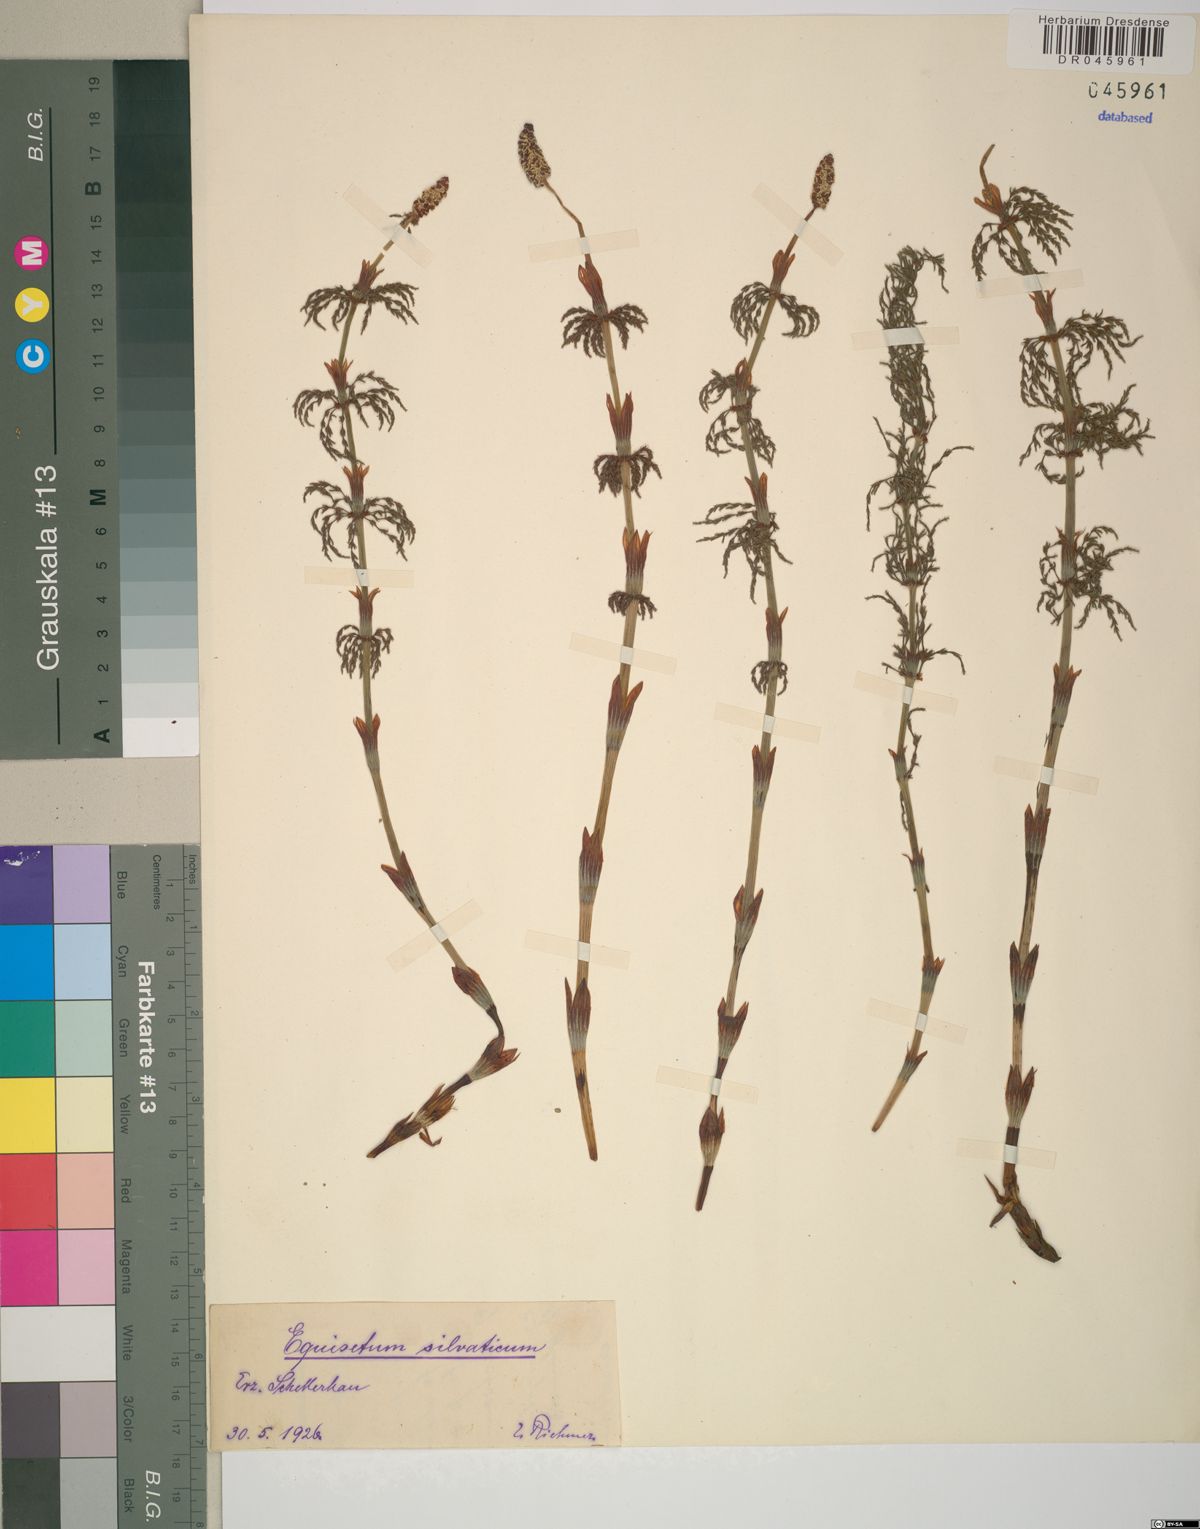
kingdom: Plantae
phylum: Tracheophyta
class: Polypodiopsida
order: Equisetales
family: Equisetaceae
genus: Equisetum
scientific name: Equisetum sylvaticum
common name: Wood horsetail
